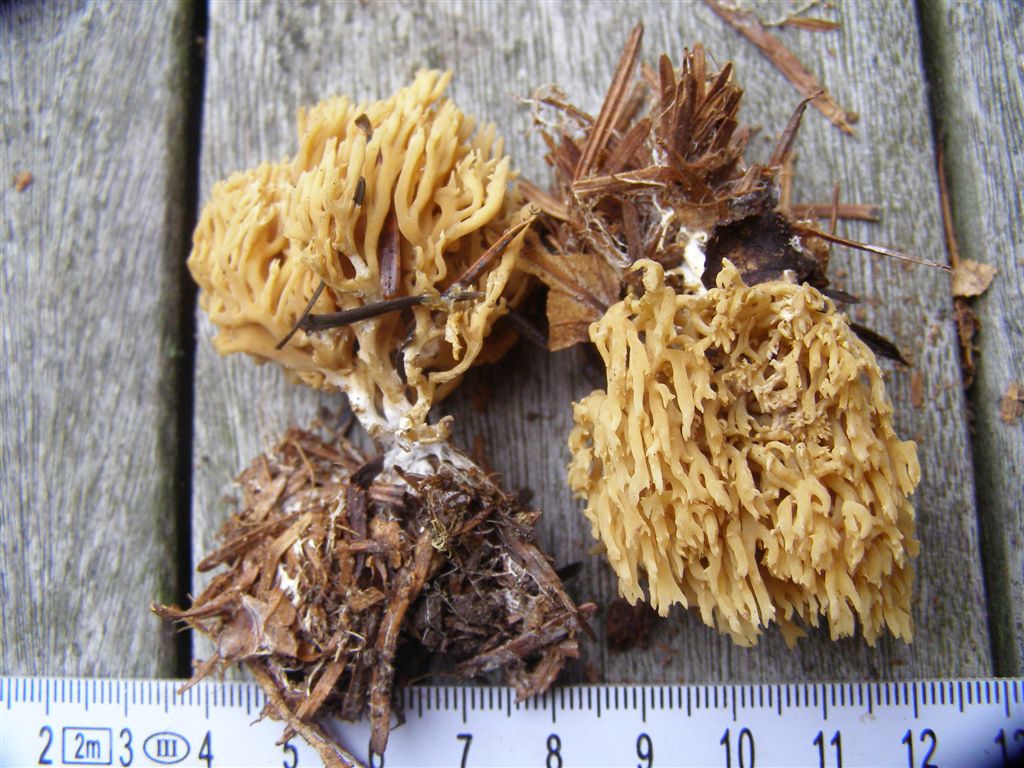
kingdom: Fungi
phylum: Basidiomycota
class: Agaricomycetes
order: Gomphales
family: Gomphaceae
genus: Phaeoclavulina
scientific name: Phaeoclavulina abietina
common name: gulgrøn koralsvamp
